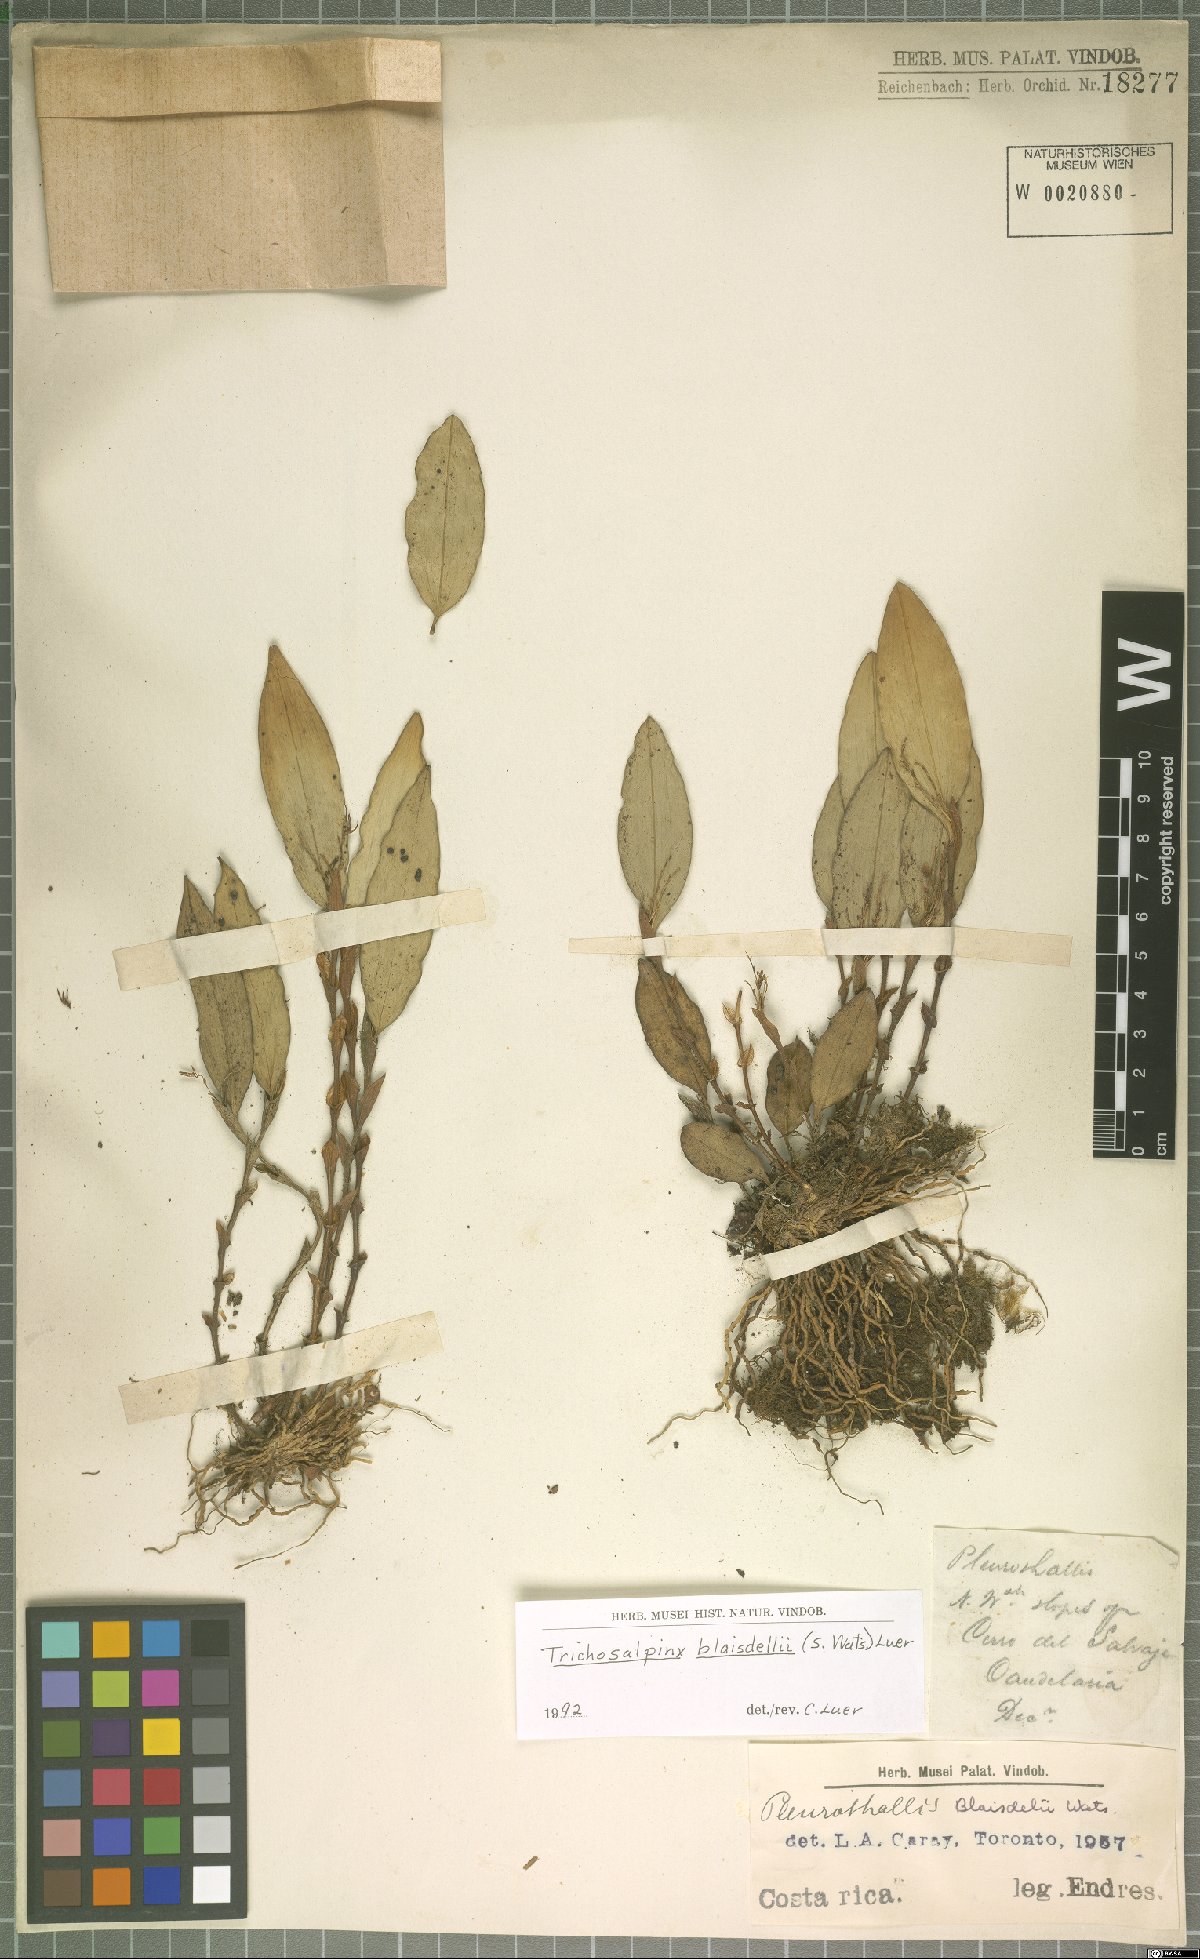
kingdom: Plantae
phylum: Tracheophyta
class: Liliopsida
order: Asparagales
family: Orchidaceae
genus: Trichosalpinx
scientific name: Trichosalpinx blaisdellii
